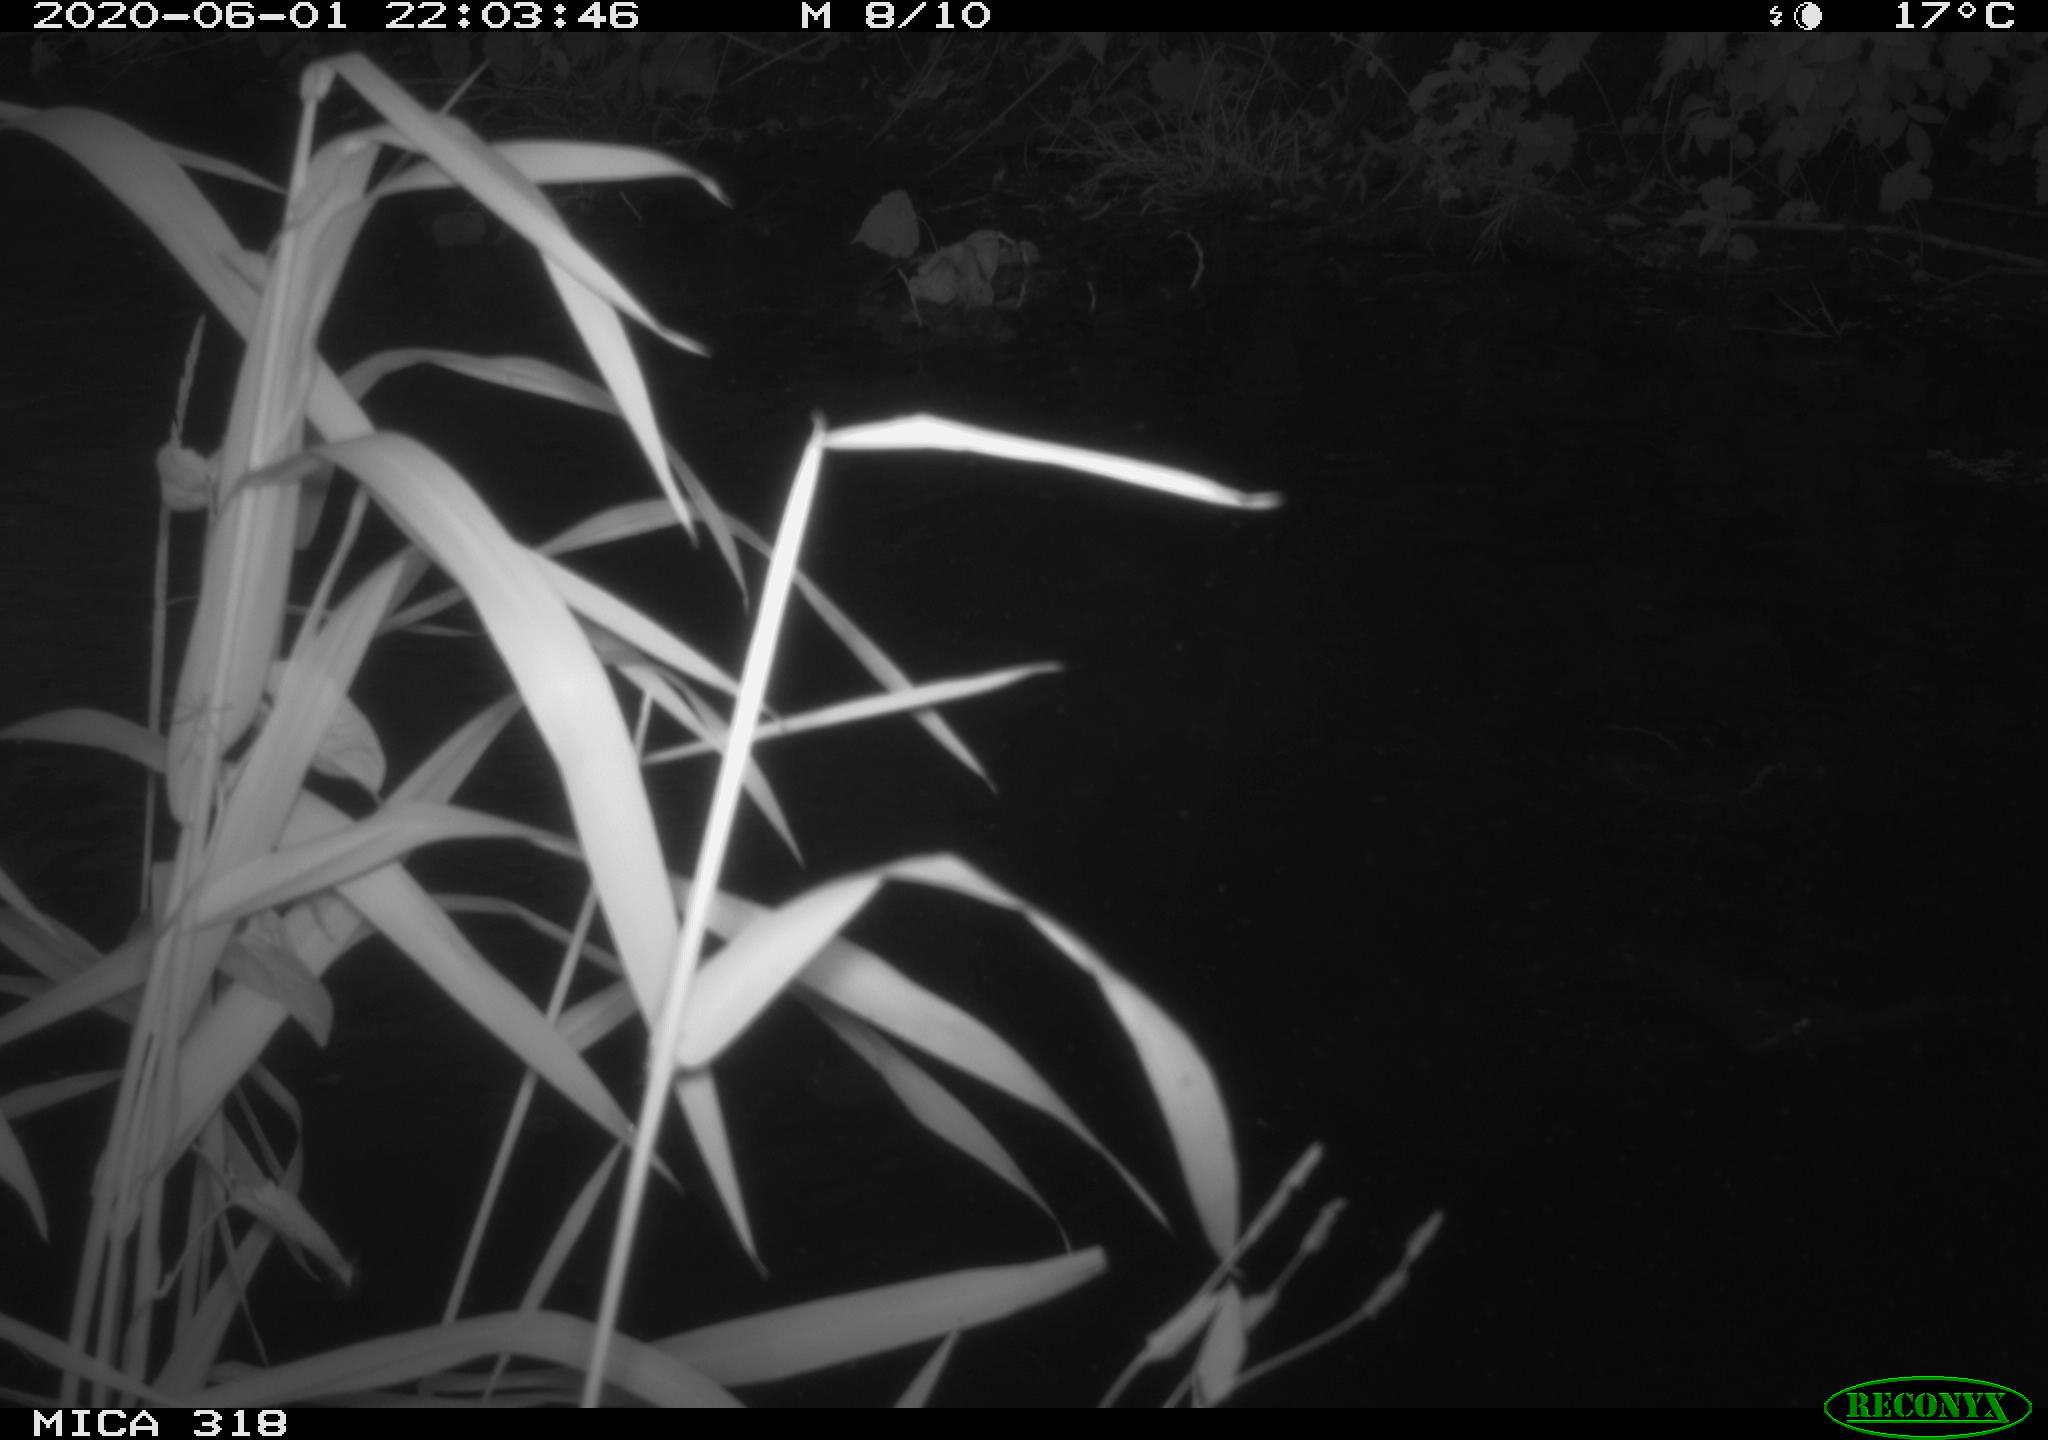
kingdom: Animalia
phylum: Chordata
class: Aves
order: Pelecaniformes
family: Ardeidae
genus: Ardea
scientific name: Ardea cinerea
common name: Grey heron
